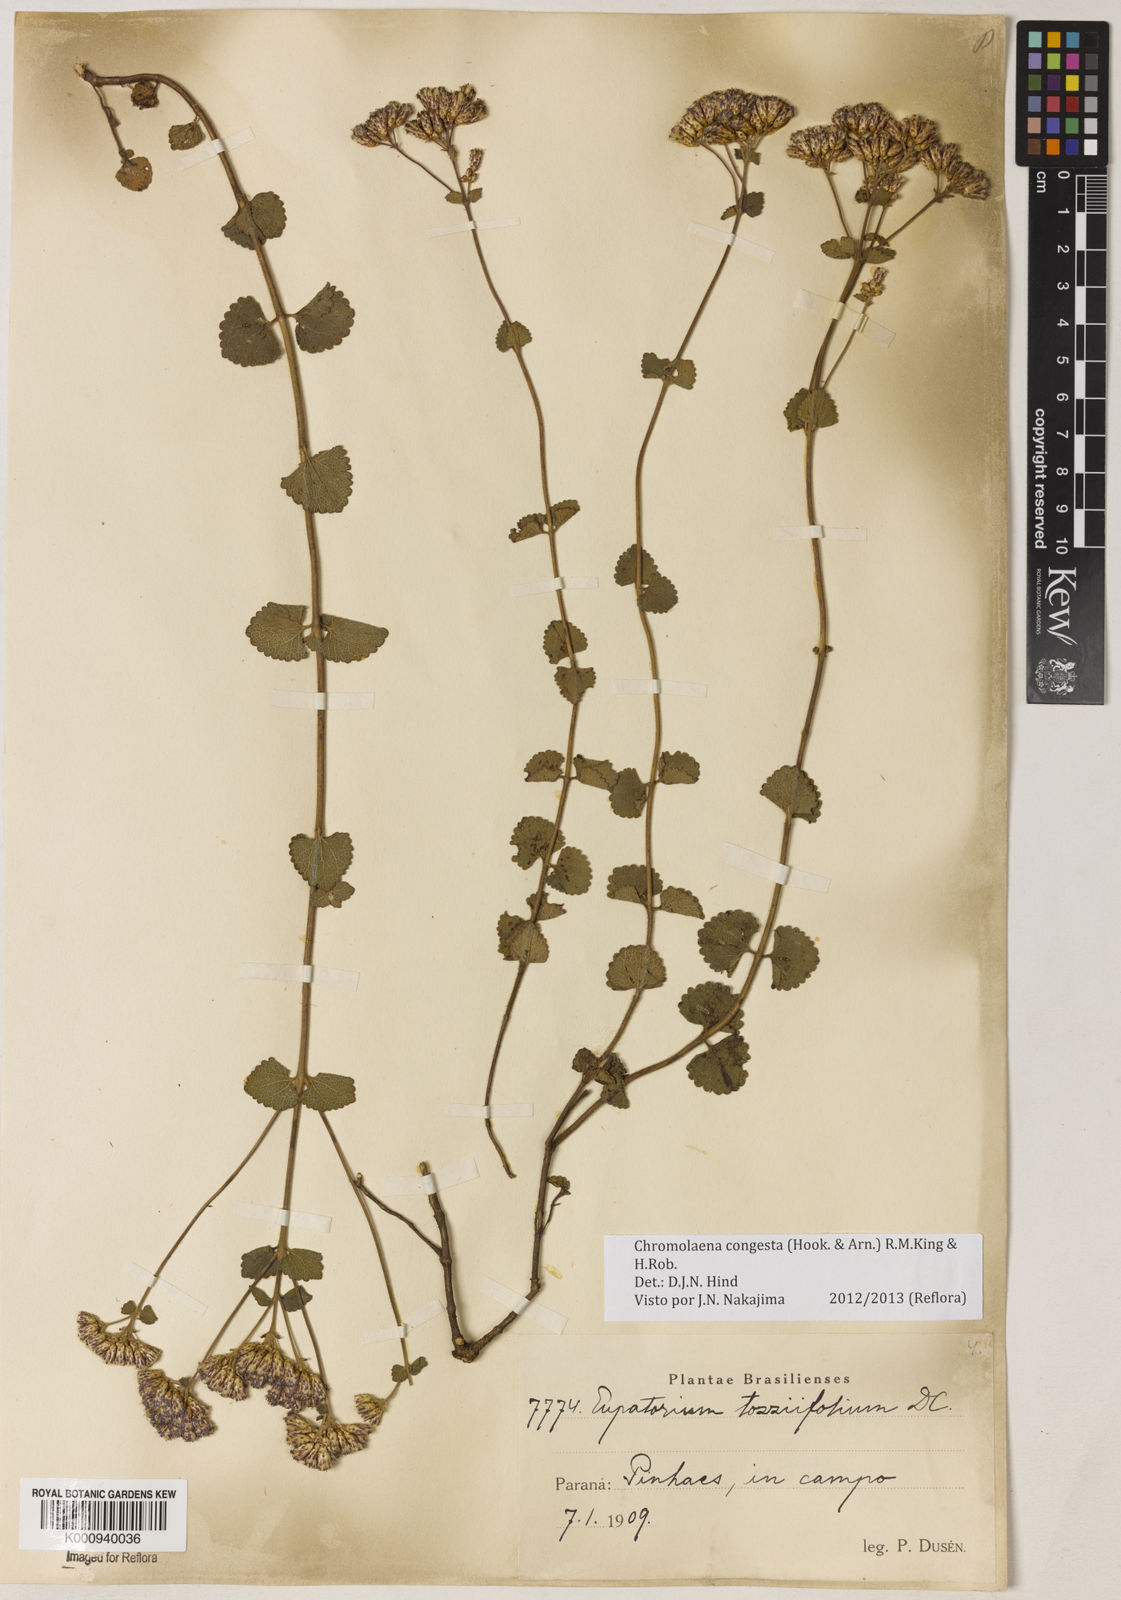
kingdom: Plantae
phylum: Tracheophyta
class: Magnoliopsida
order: Asterales
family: Asteraceae
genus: Chromolaena
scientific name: Chromolaena congesta
